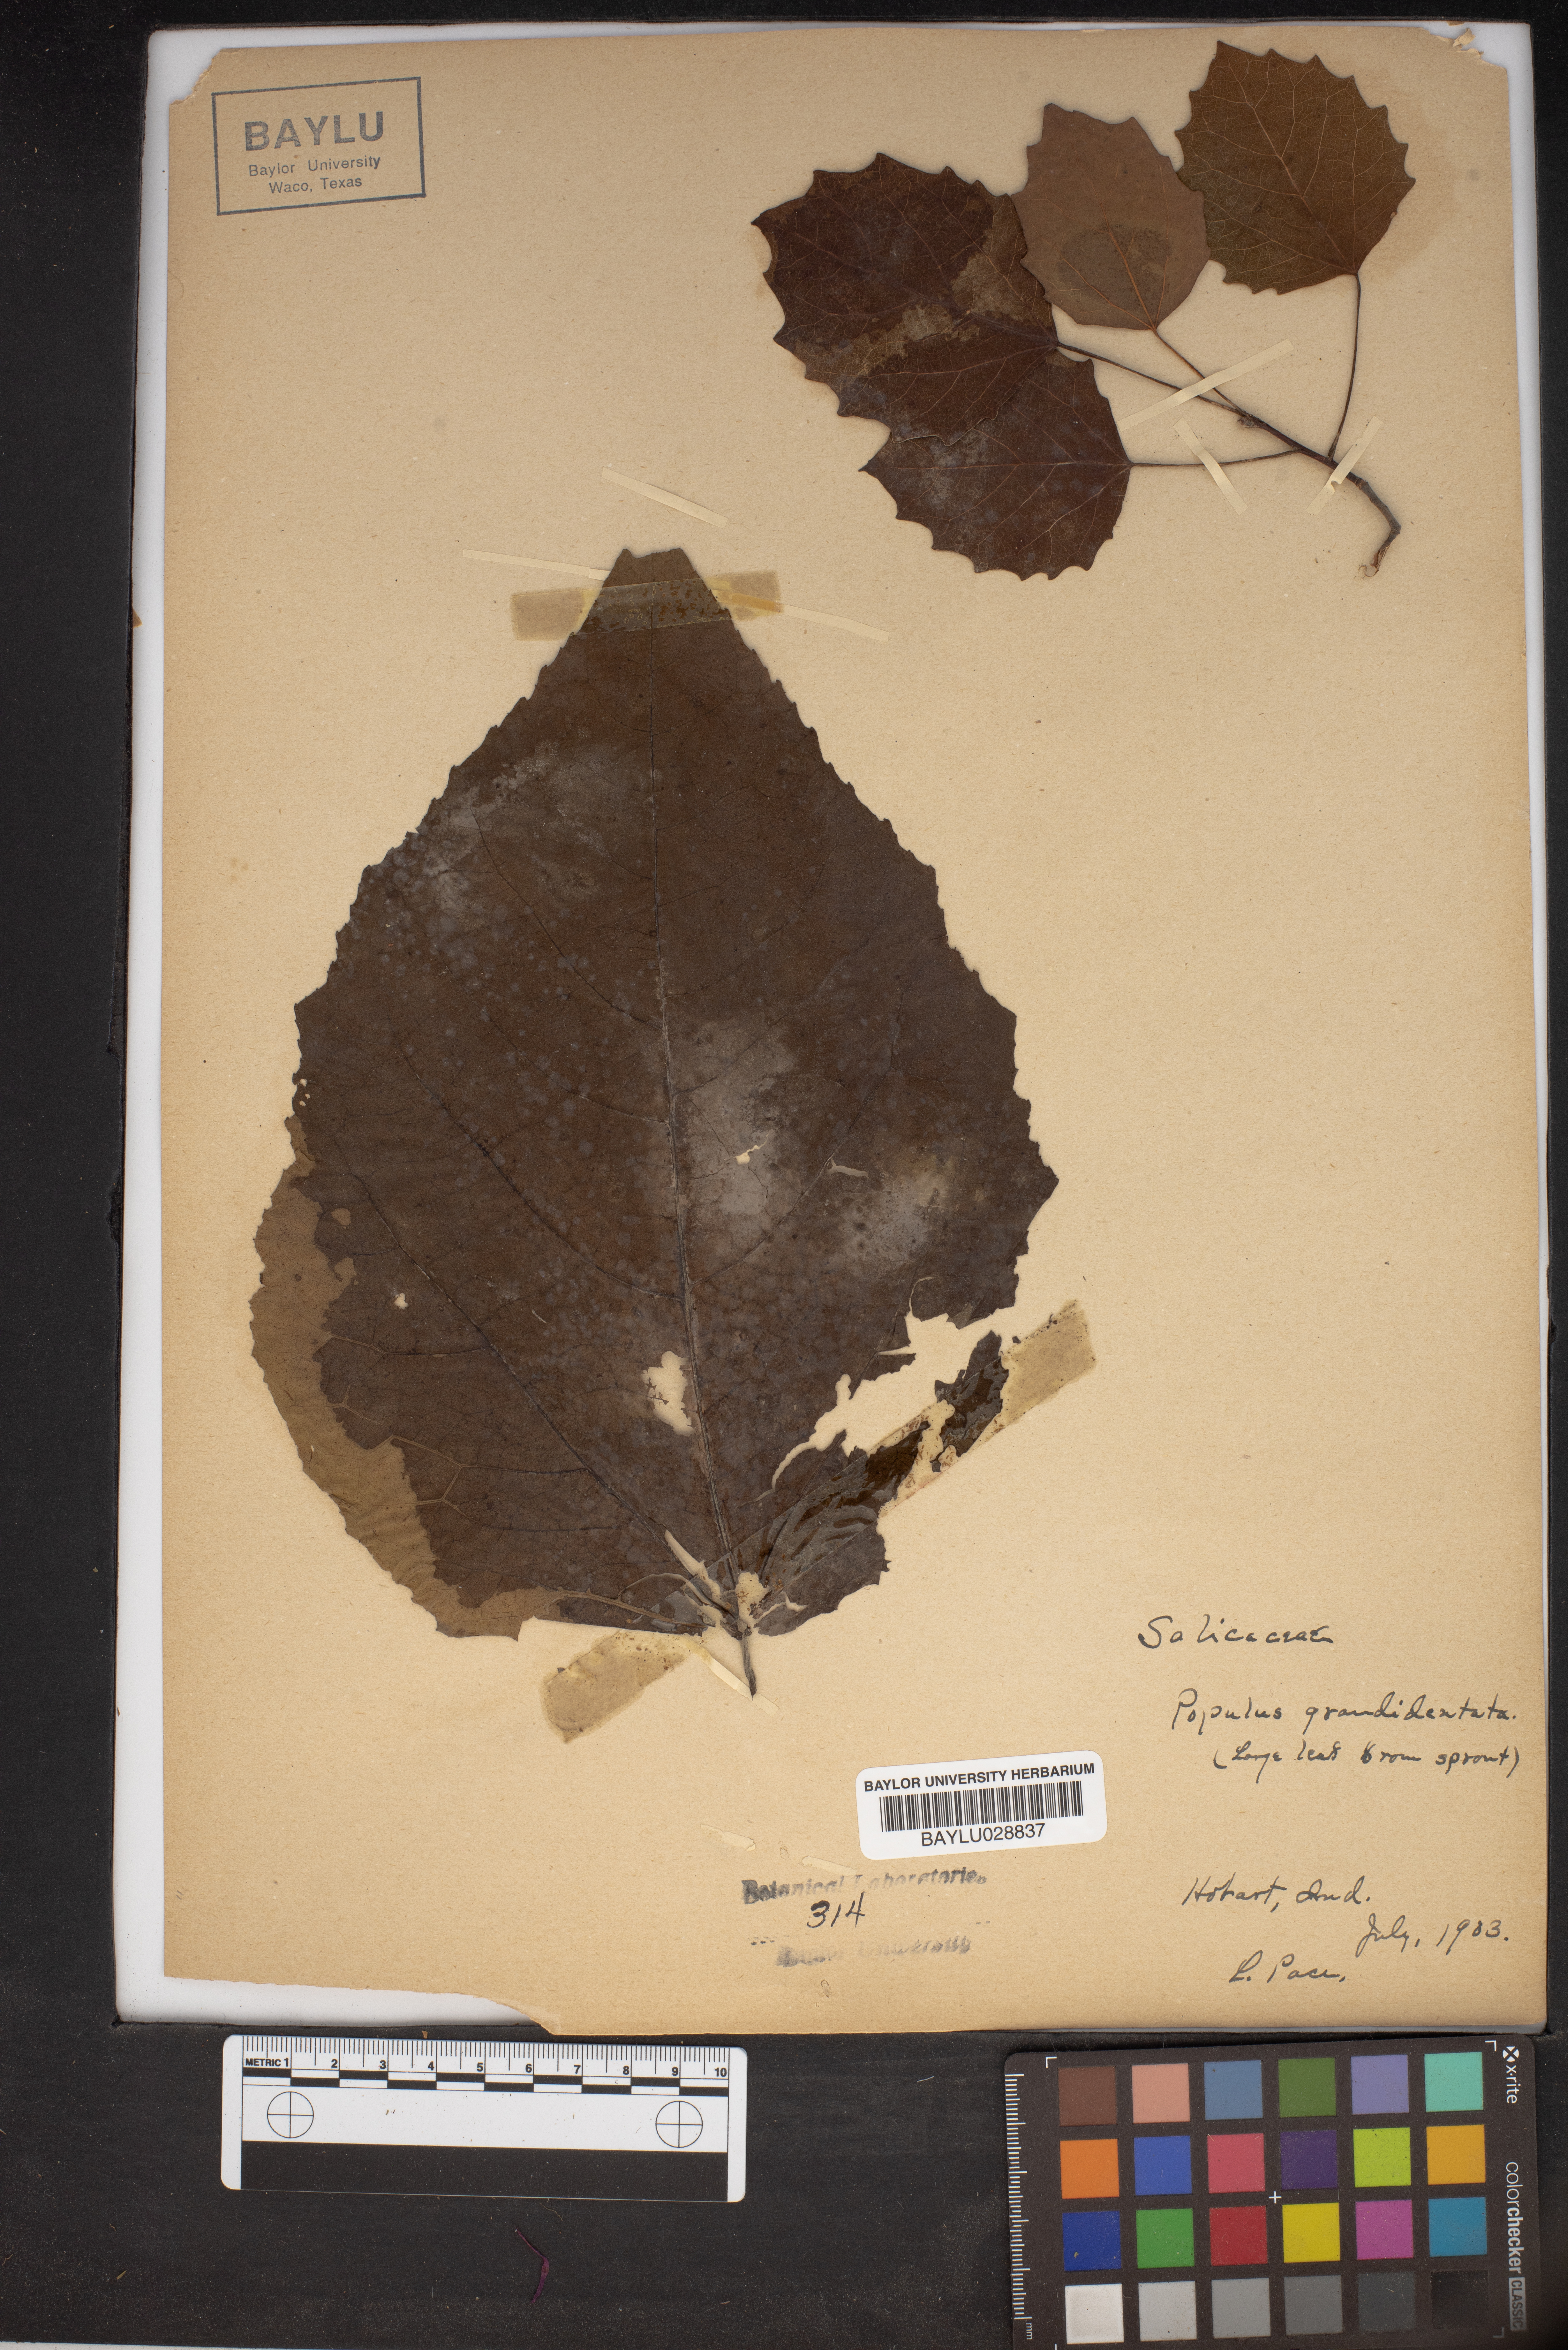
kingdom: Plantae
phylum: Tracheophyta
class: Magnoliopsida
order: Malpighiales
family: Salicaceae
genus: Populus
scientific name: Populus grandidentata
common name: Bigtooth aspen
